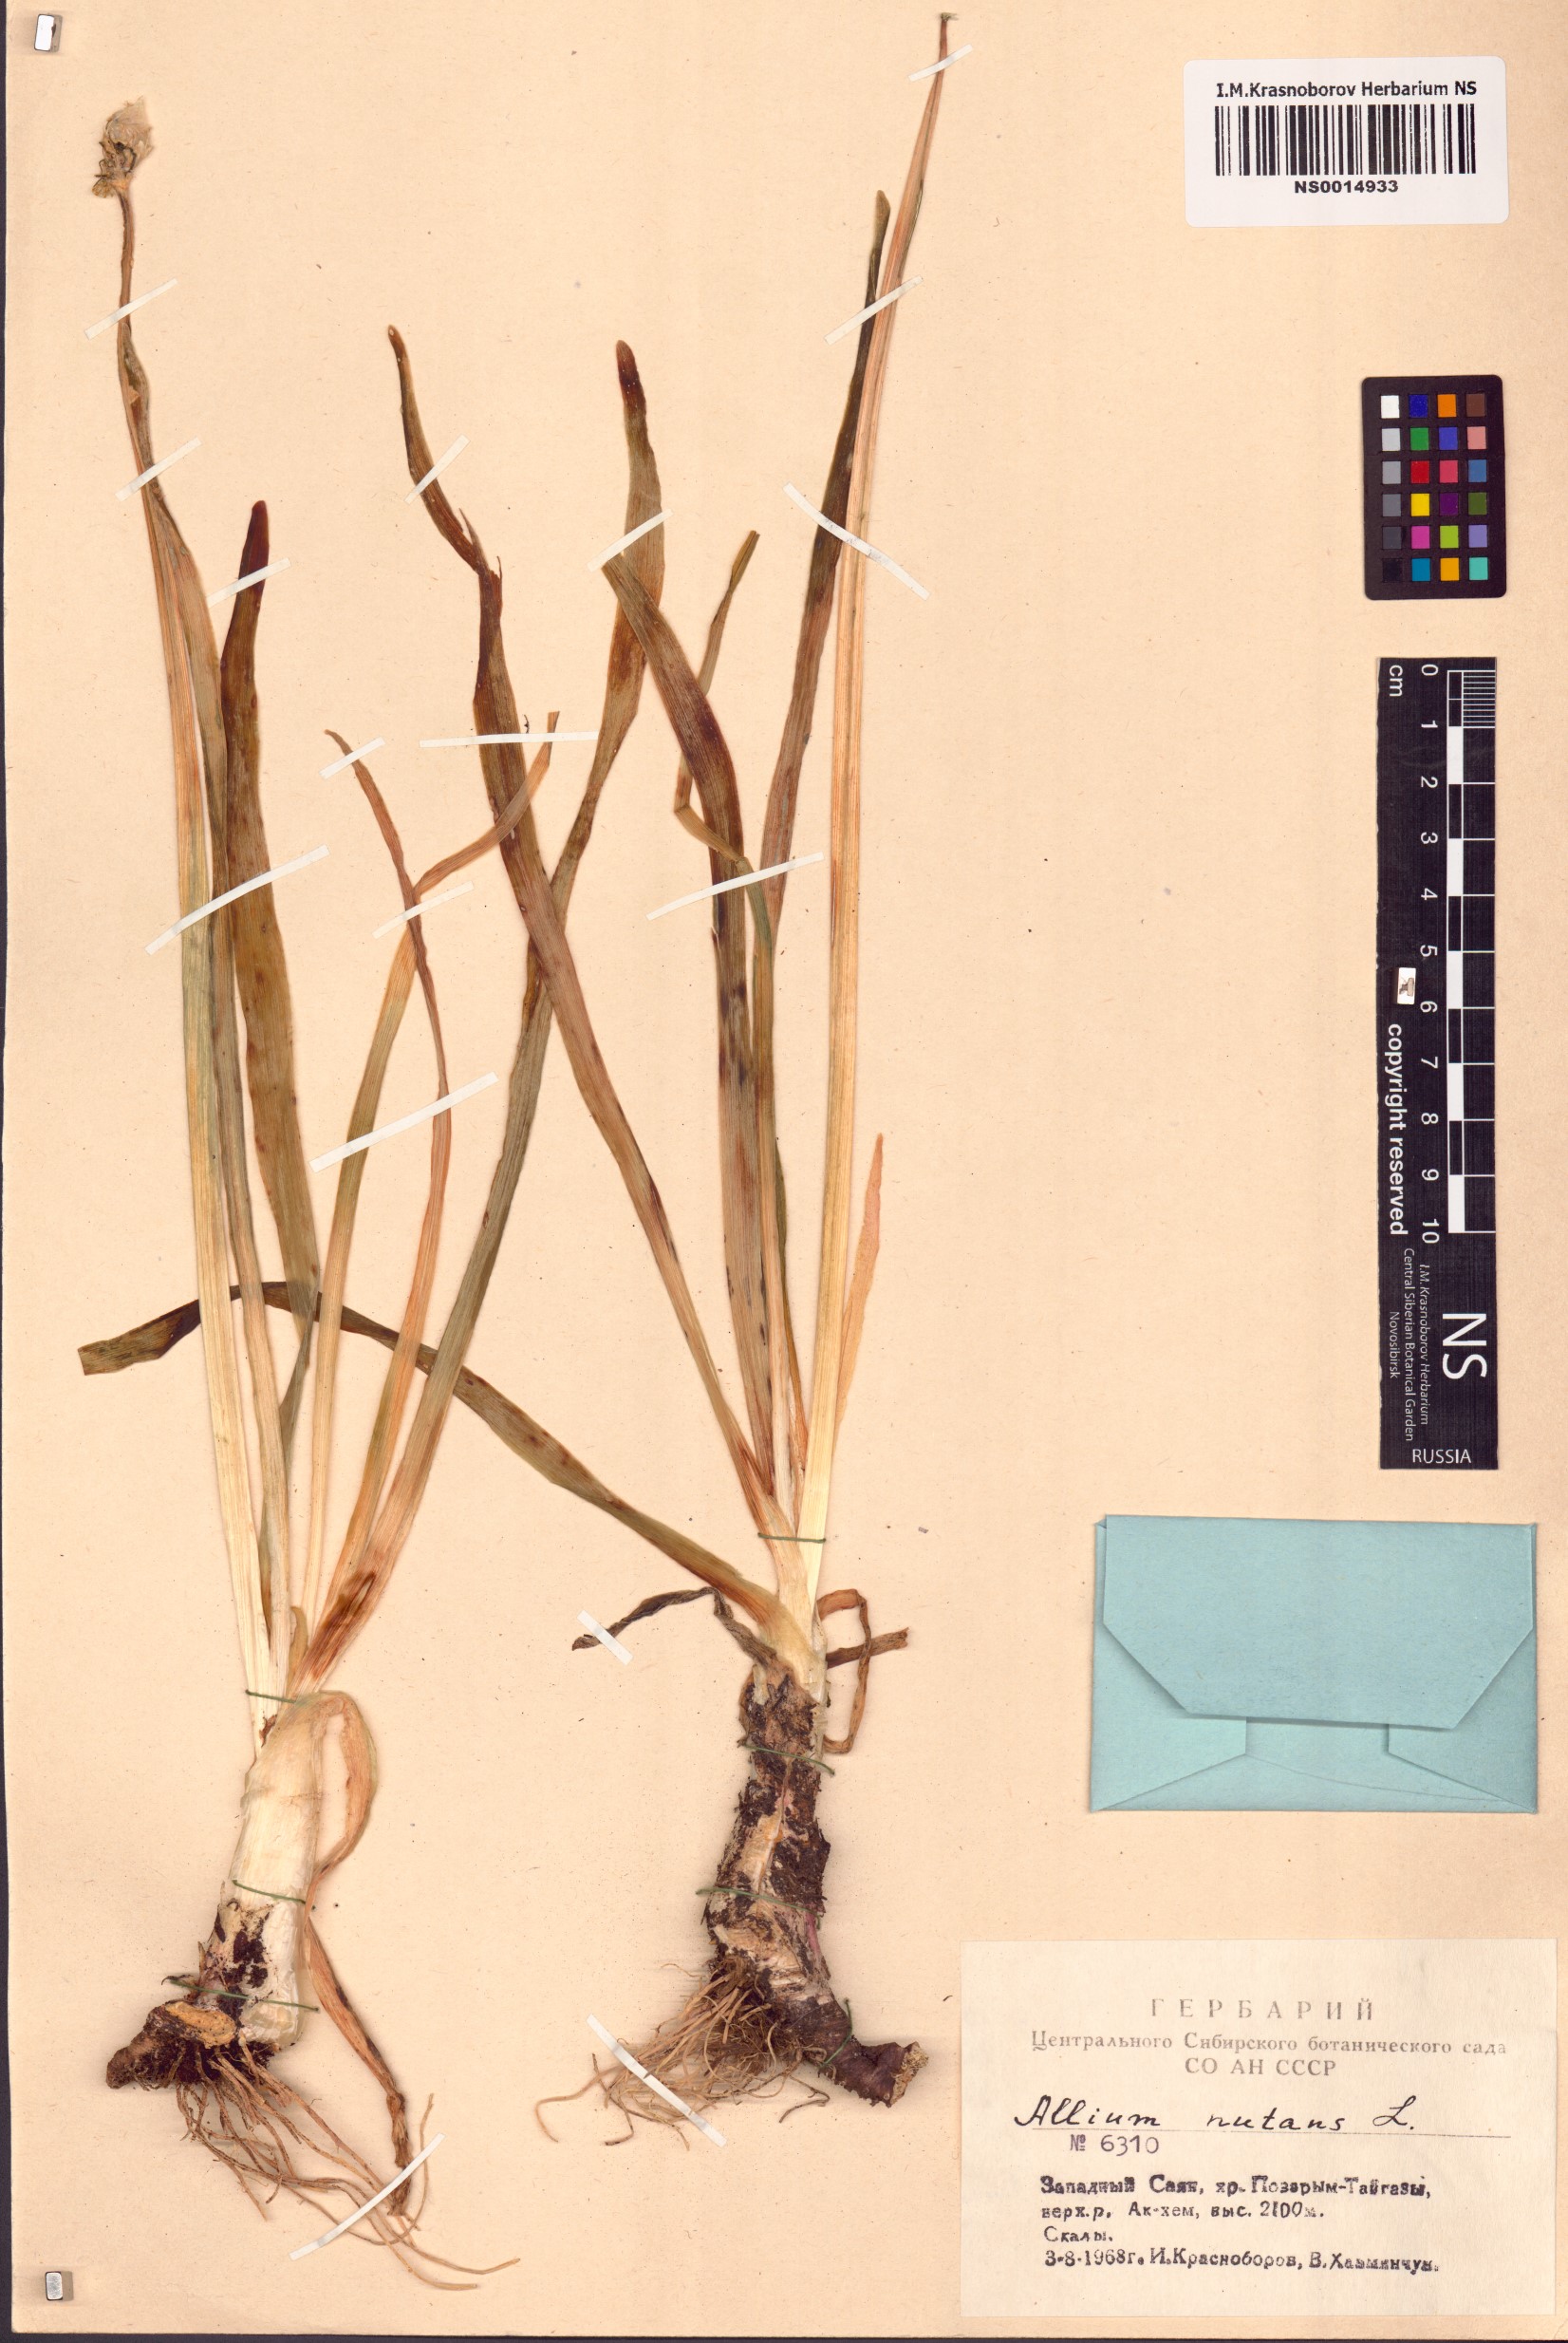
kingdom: Plantae
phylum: Tracheophyta
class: Liliopsida
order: Asparagales
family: Amaryllidaceae
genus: Allium
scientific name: Allium nutans
